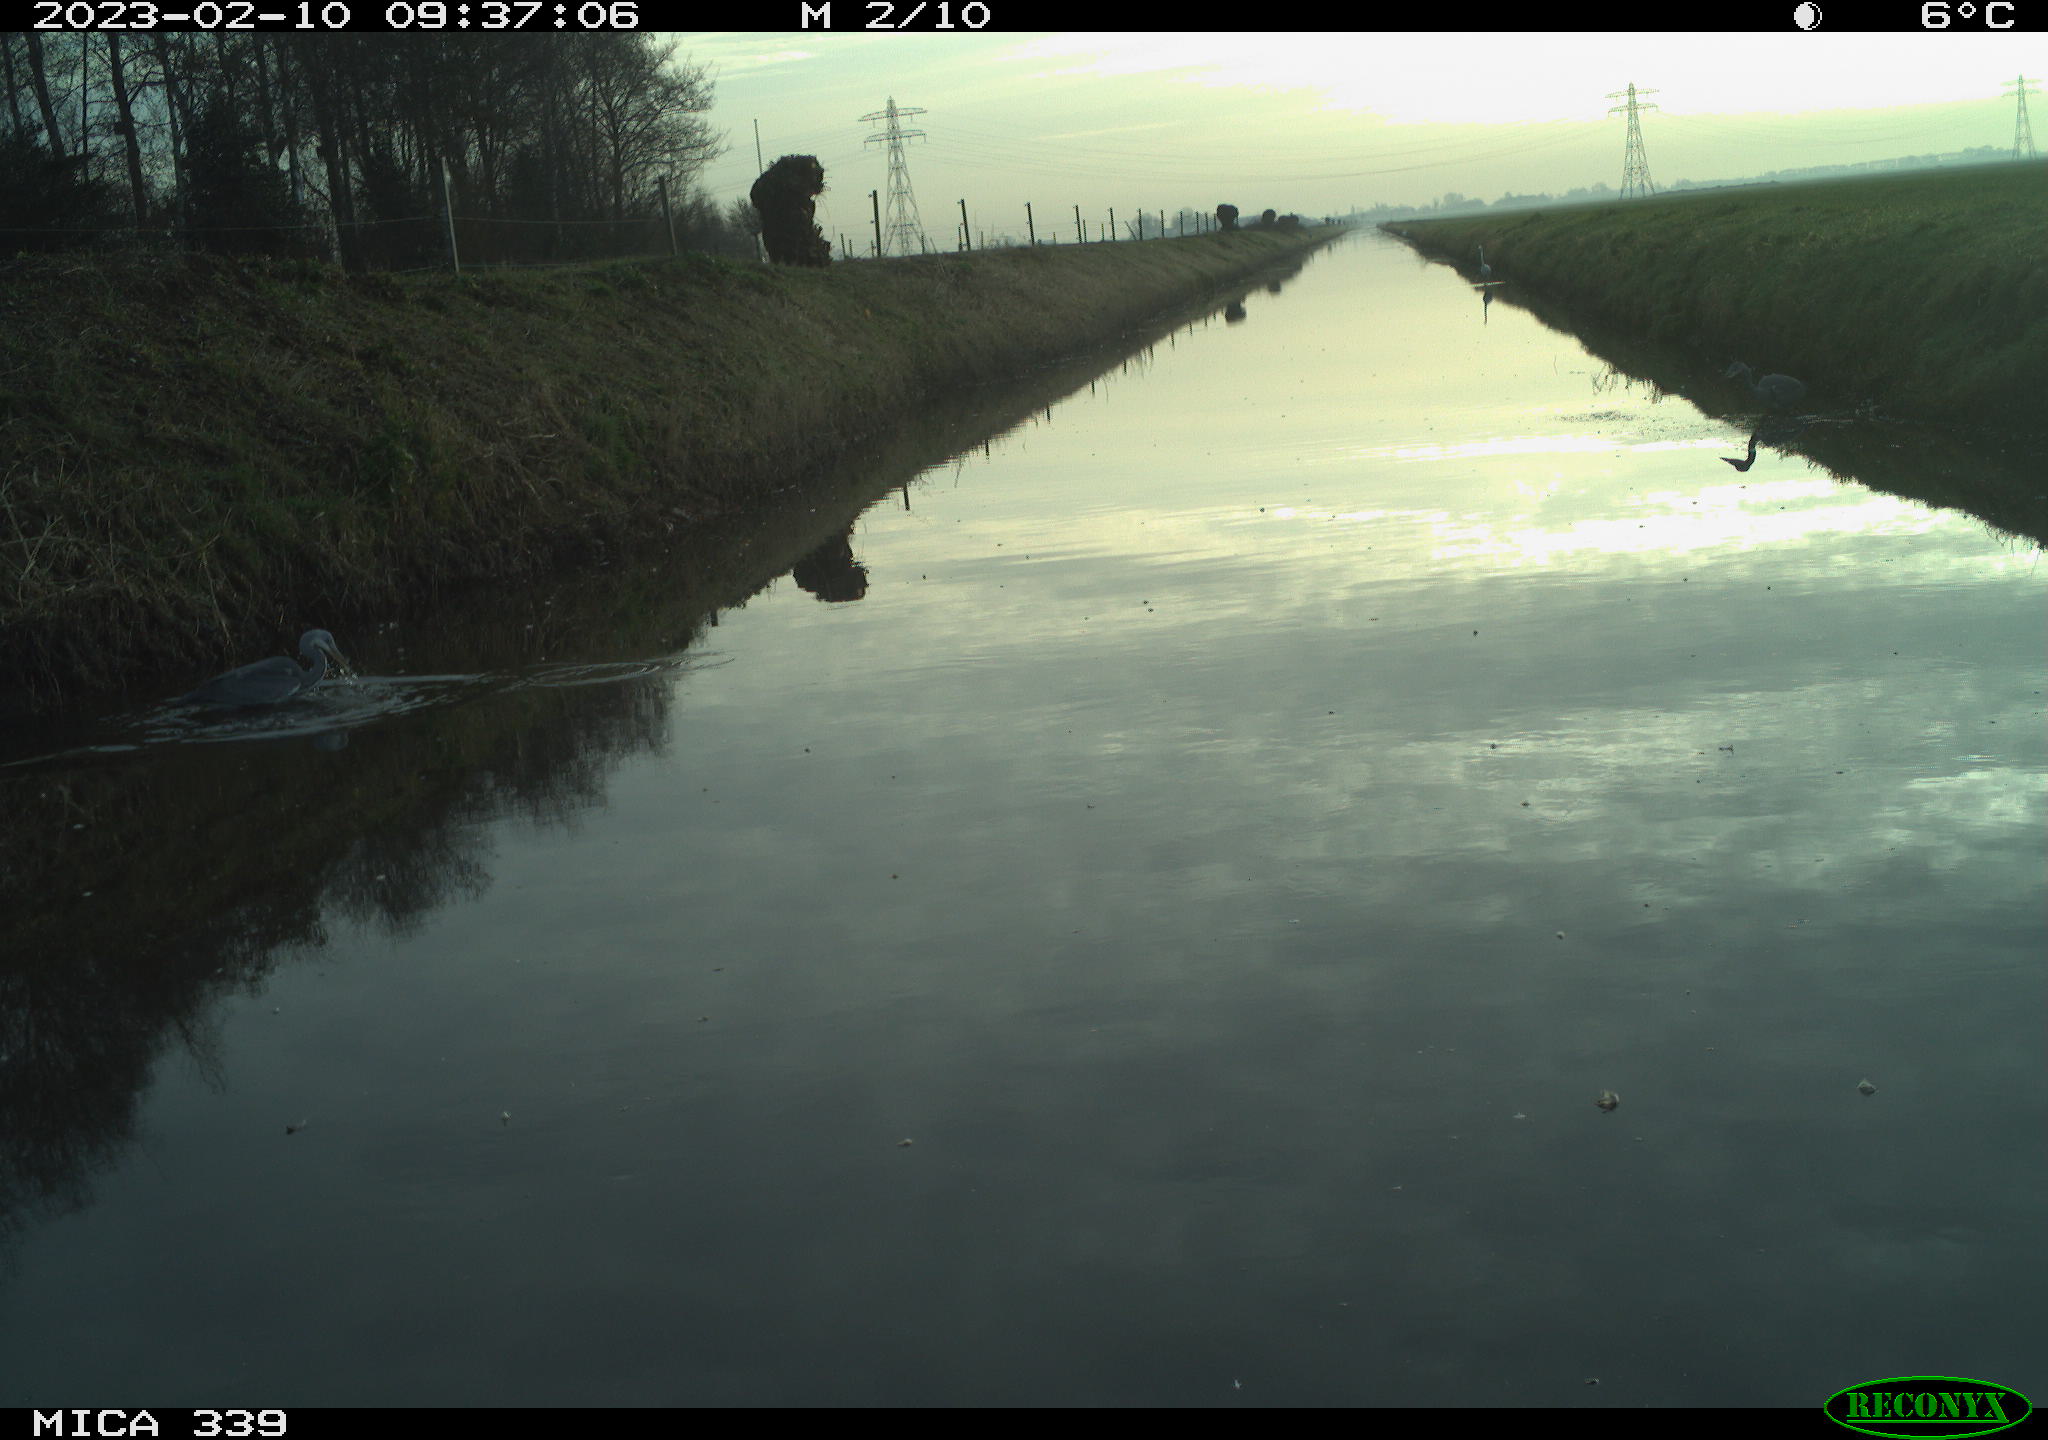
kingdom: Animalia
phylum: Chordata
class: Aves
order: Pelecaniformes
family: Ardeidae
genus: Ardea
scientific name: Ardea alba
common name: Great egret
